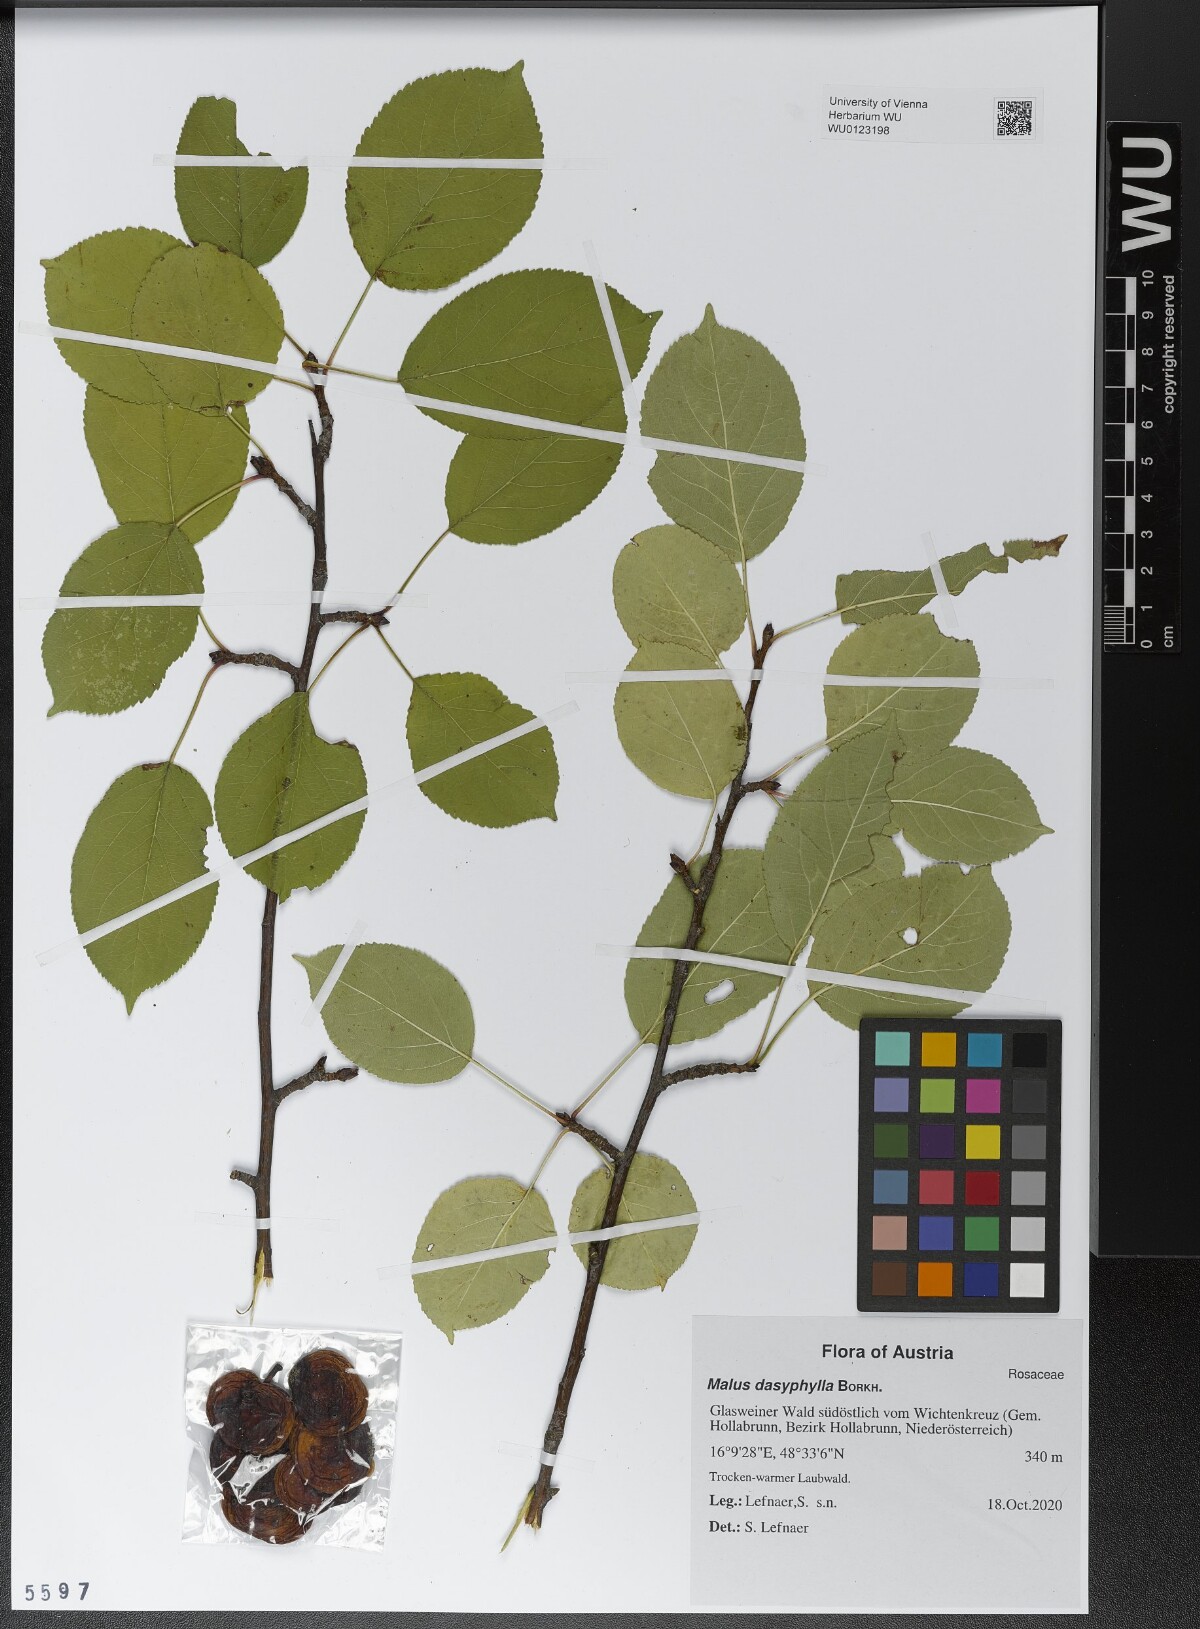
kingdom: Plantae
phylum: Tracheophyta
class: Magnoliopsida
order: Rosales
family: Rosaceae
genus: Malus
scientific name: Malus dasyphylla
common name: Paradise apple
